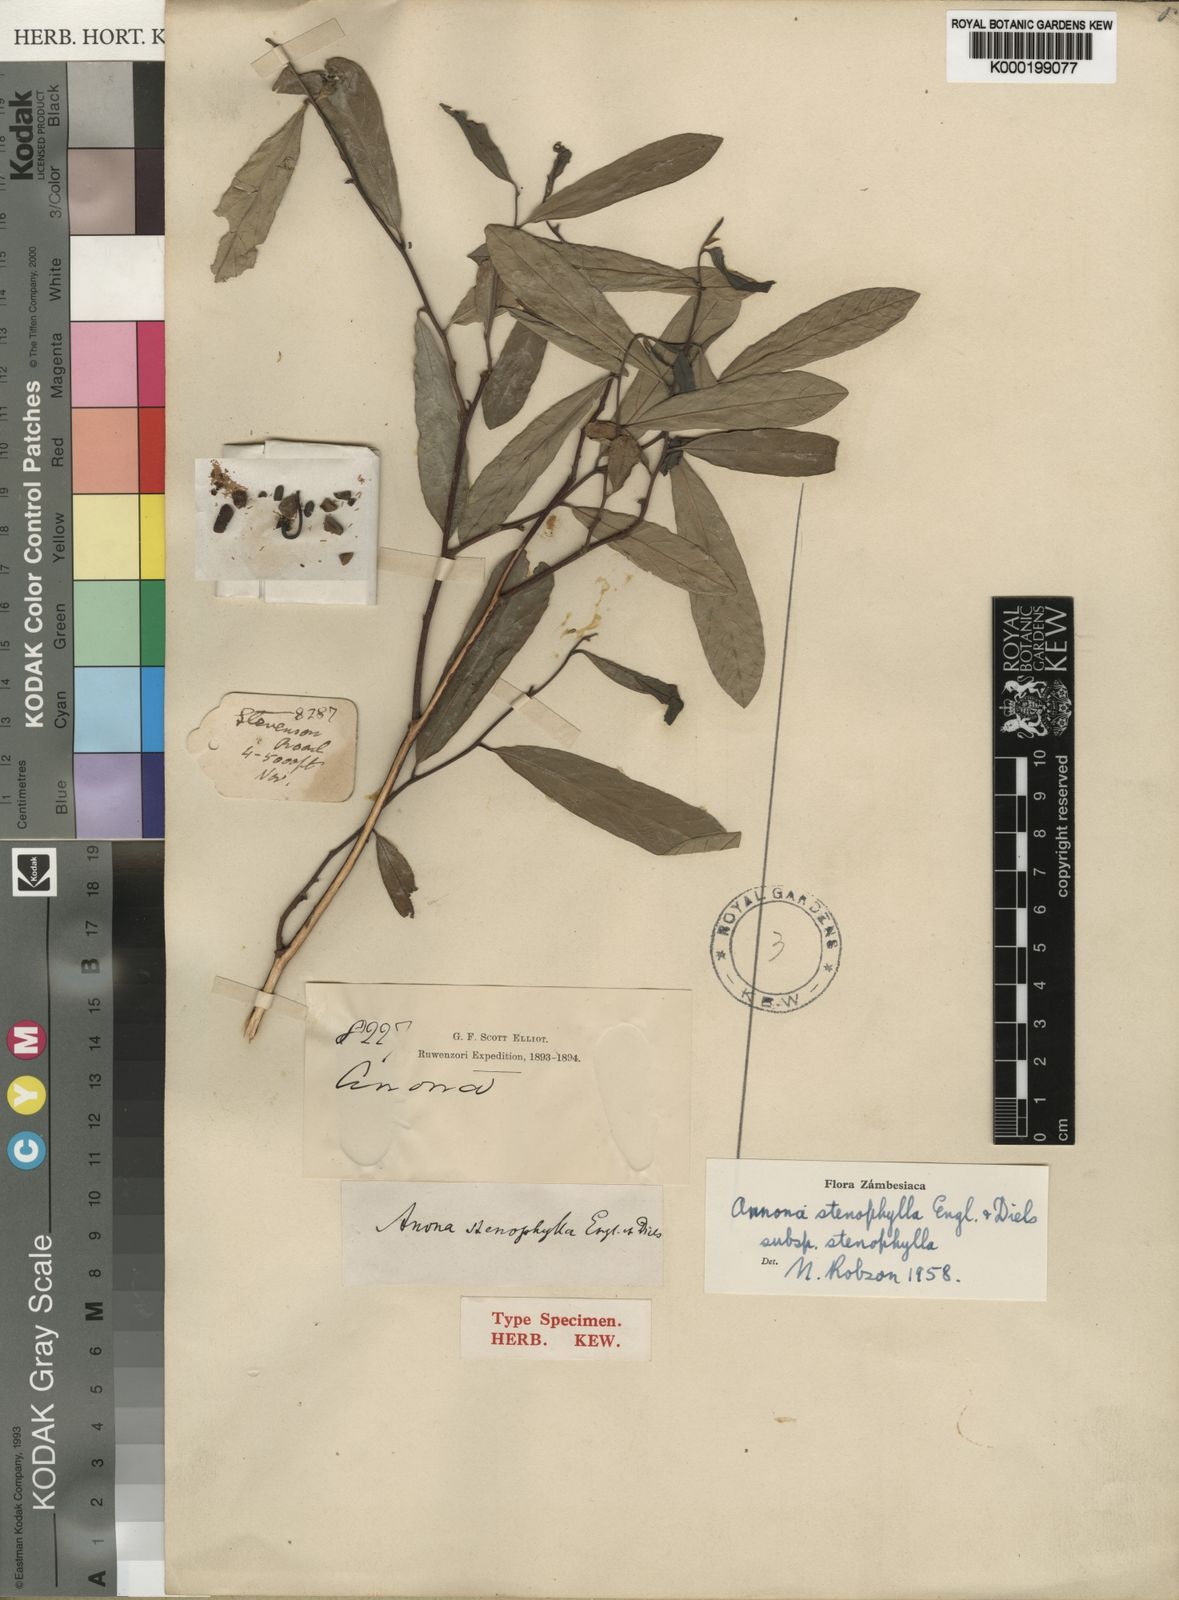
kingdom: Plantae
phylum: Tracheophyta
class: Magnoliopsida
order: Magnoliales
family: Annonaceae
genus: Annona
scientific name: Annona stenophylla
